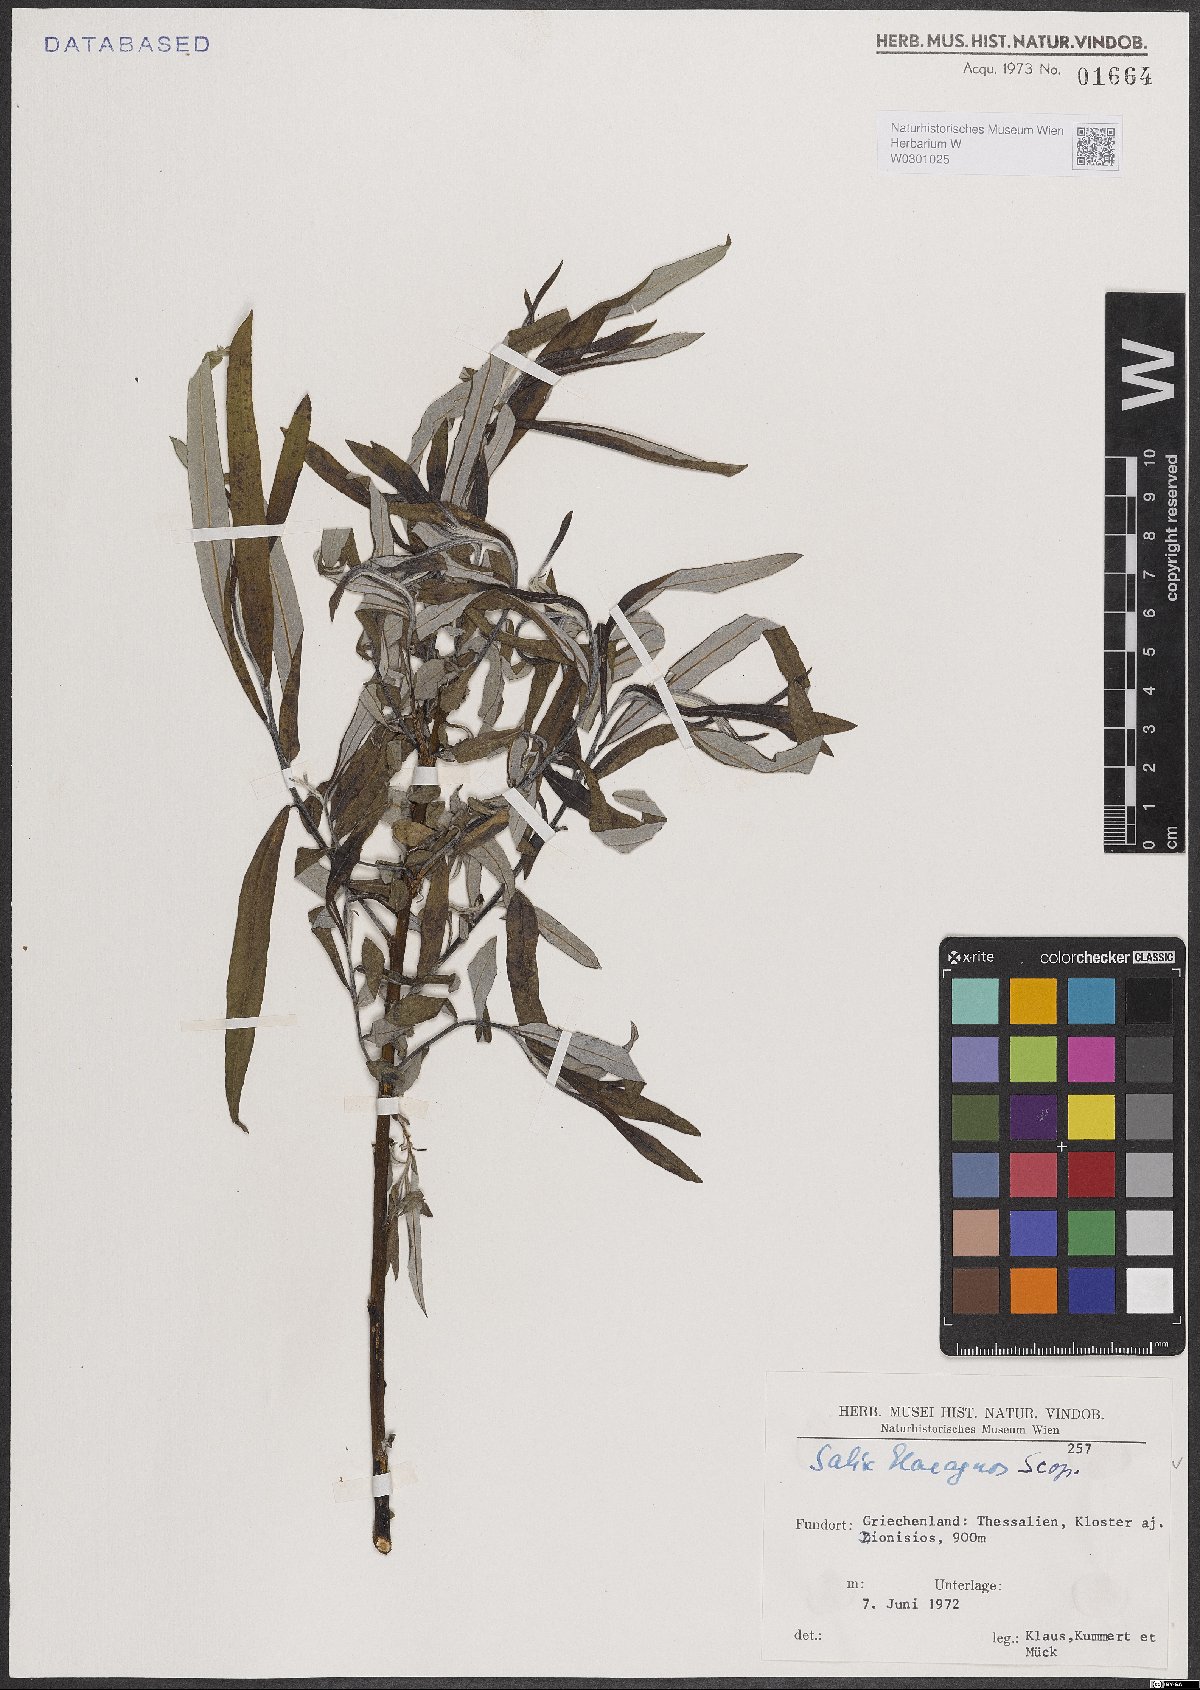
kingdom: Plantae
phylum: Tracheophyta
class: Magnoliopsida
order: Malpighiales
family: Salicaceae
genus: Salix
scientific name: Salix eleagnos
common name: Elaeagnus willow
